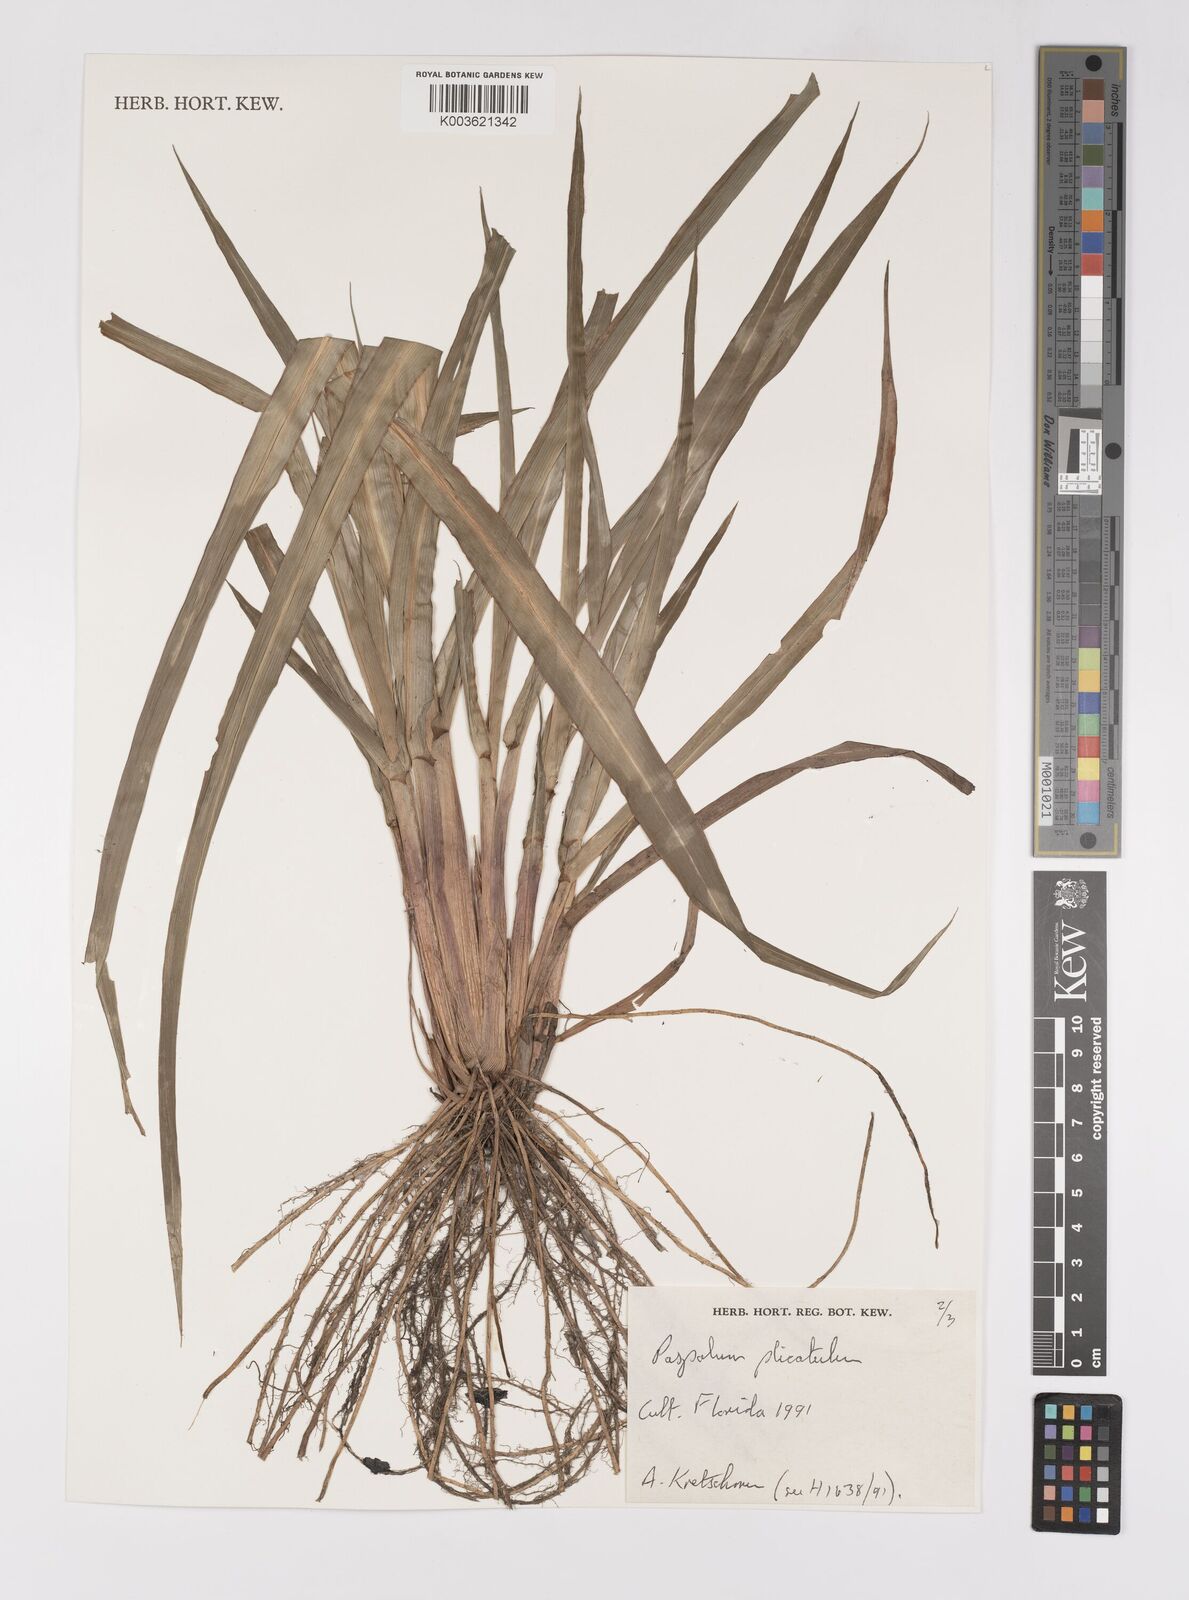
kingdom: Plantae
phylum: Tracheophyta
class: Liliopsida
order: Poales
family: Poaceae
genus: Paspalum
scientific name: Paspalum plicatulum
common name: Top paspalum
